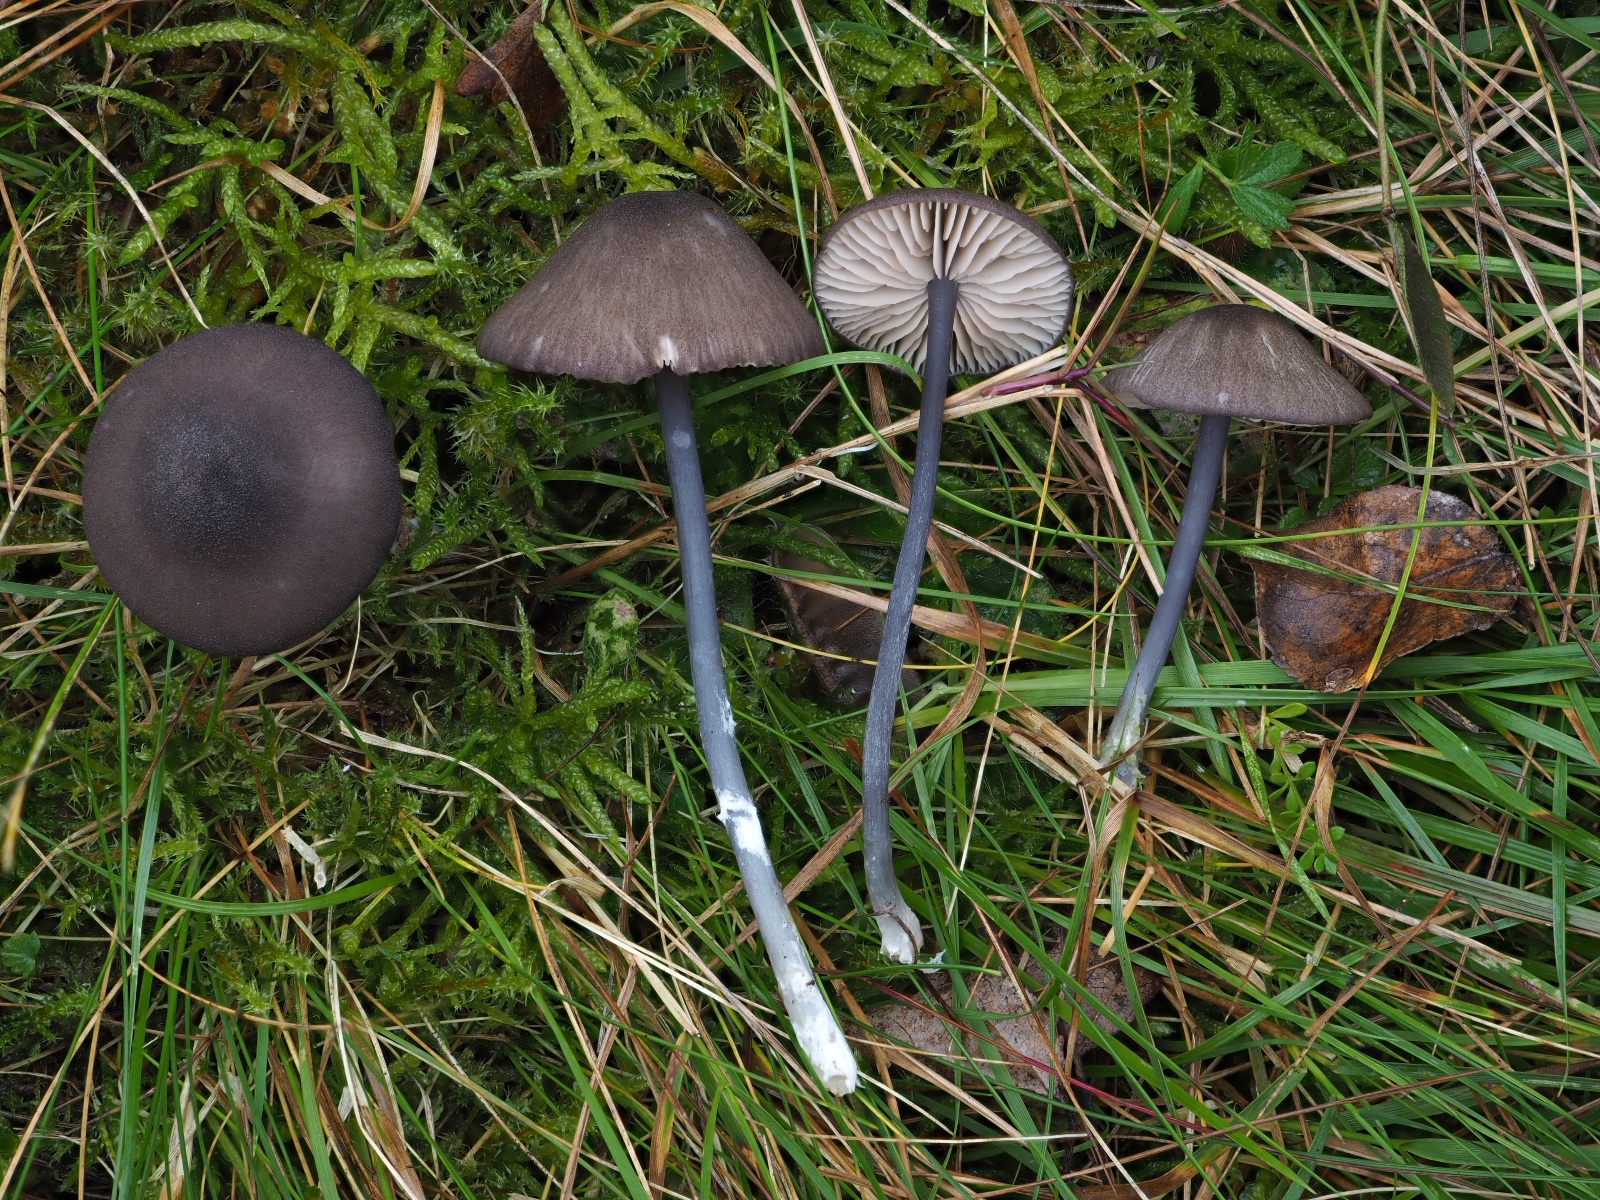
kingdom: Fungi
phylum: Basidiomycota
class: Agaricomycetes
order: Agaricales
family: Entolomataceae
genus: Entoloma
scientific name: Entoloma atrocoeruleum
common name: sortblå rødblad
